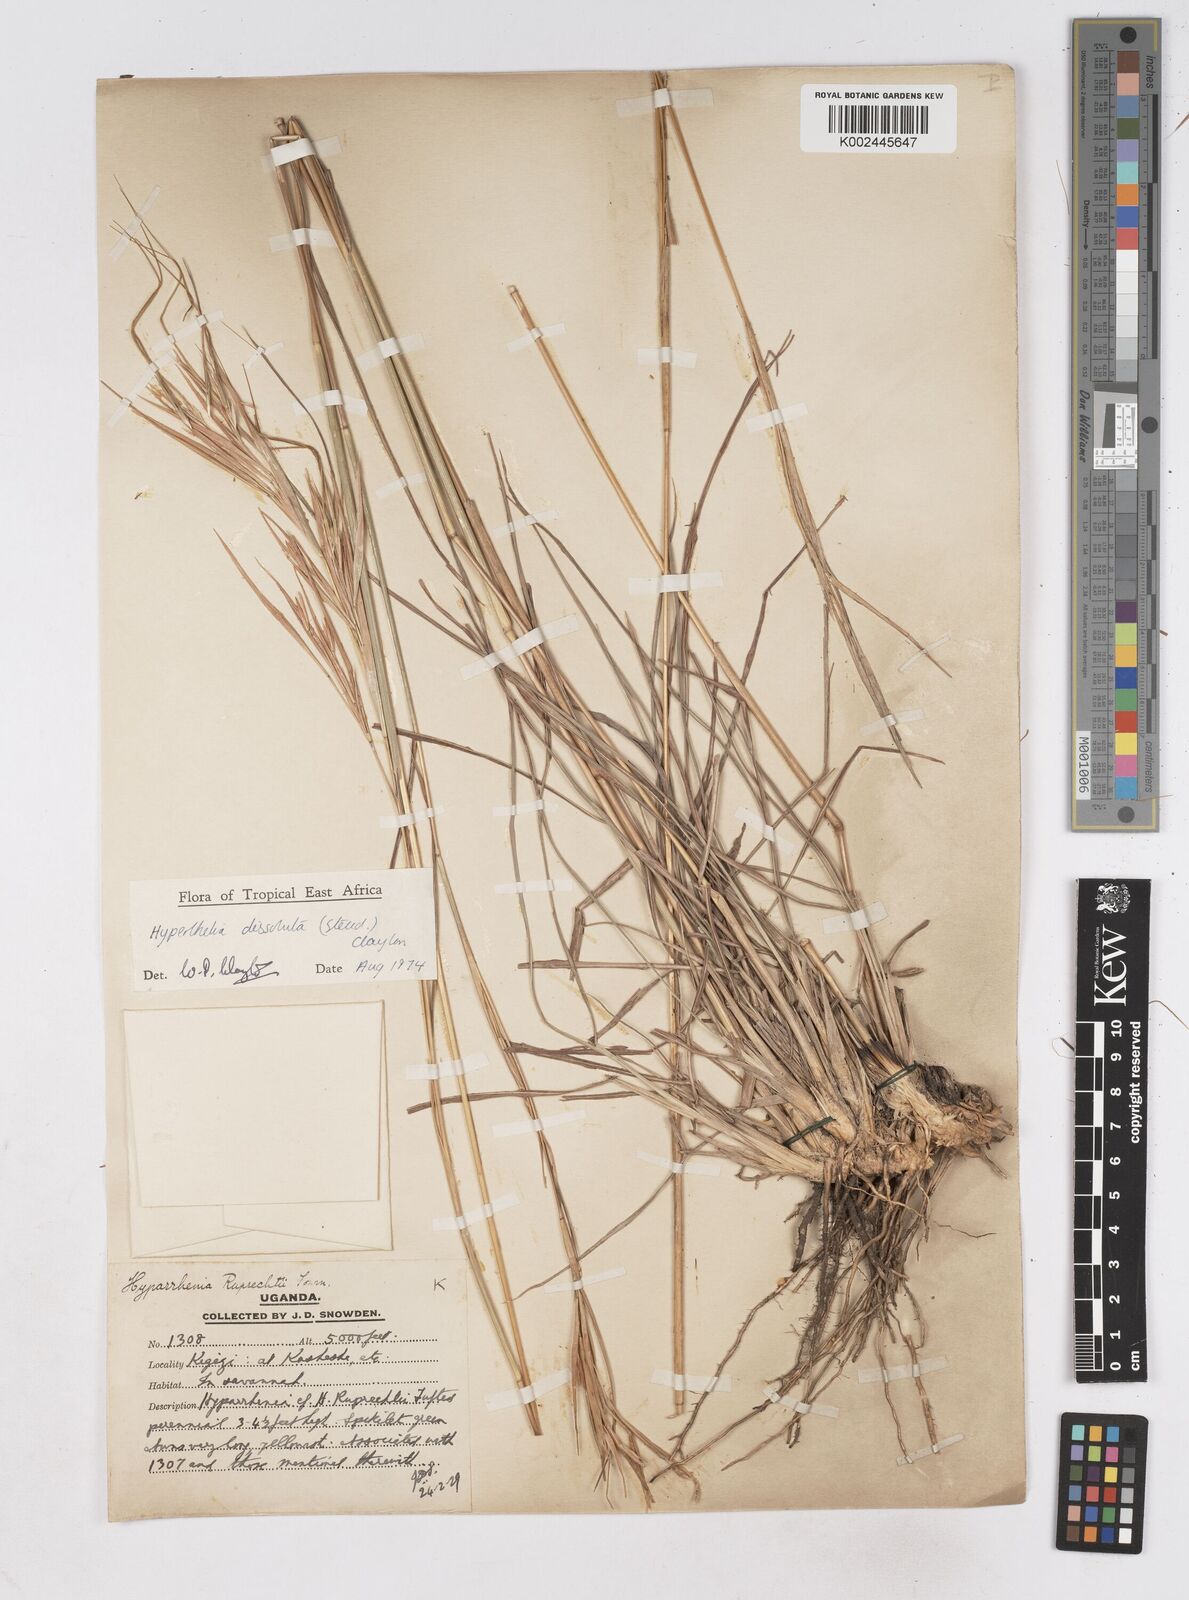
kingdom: Plantae
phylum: Tracheophyta
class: Liliopsida
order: Poales
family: Poaceae
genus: Hyperthelia
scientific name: Hyperthelia dissoluta
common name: Yellow thatching grass
